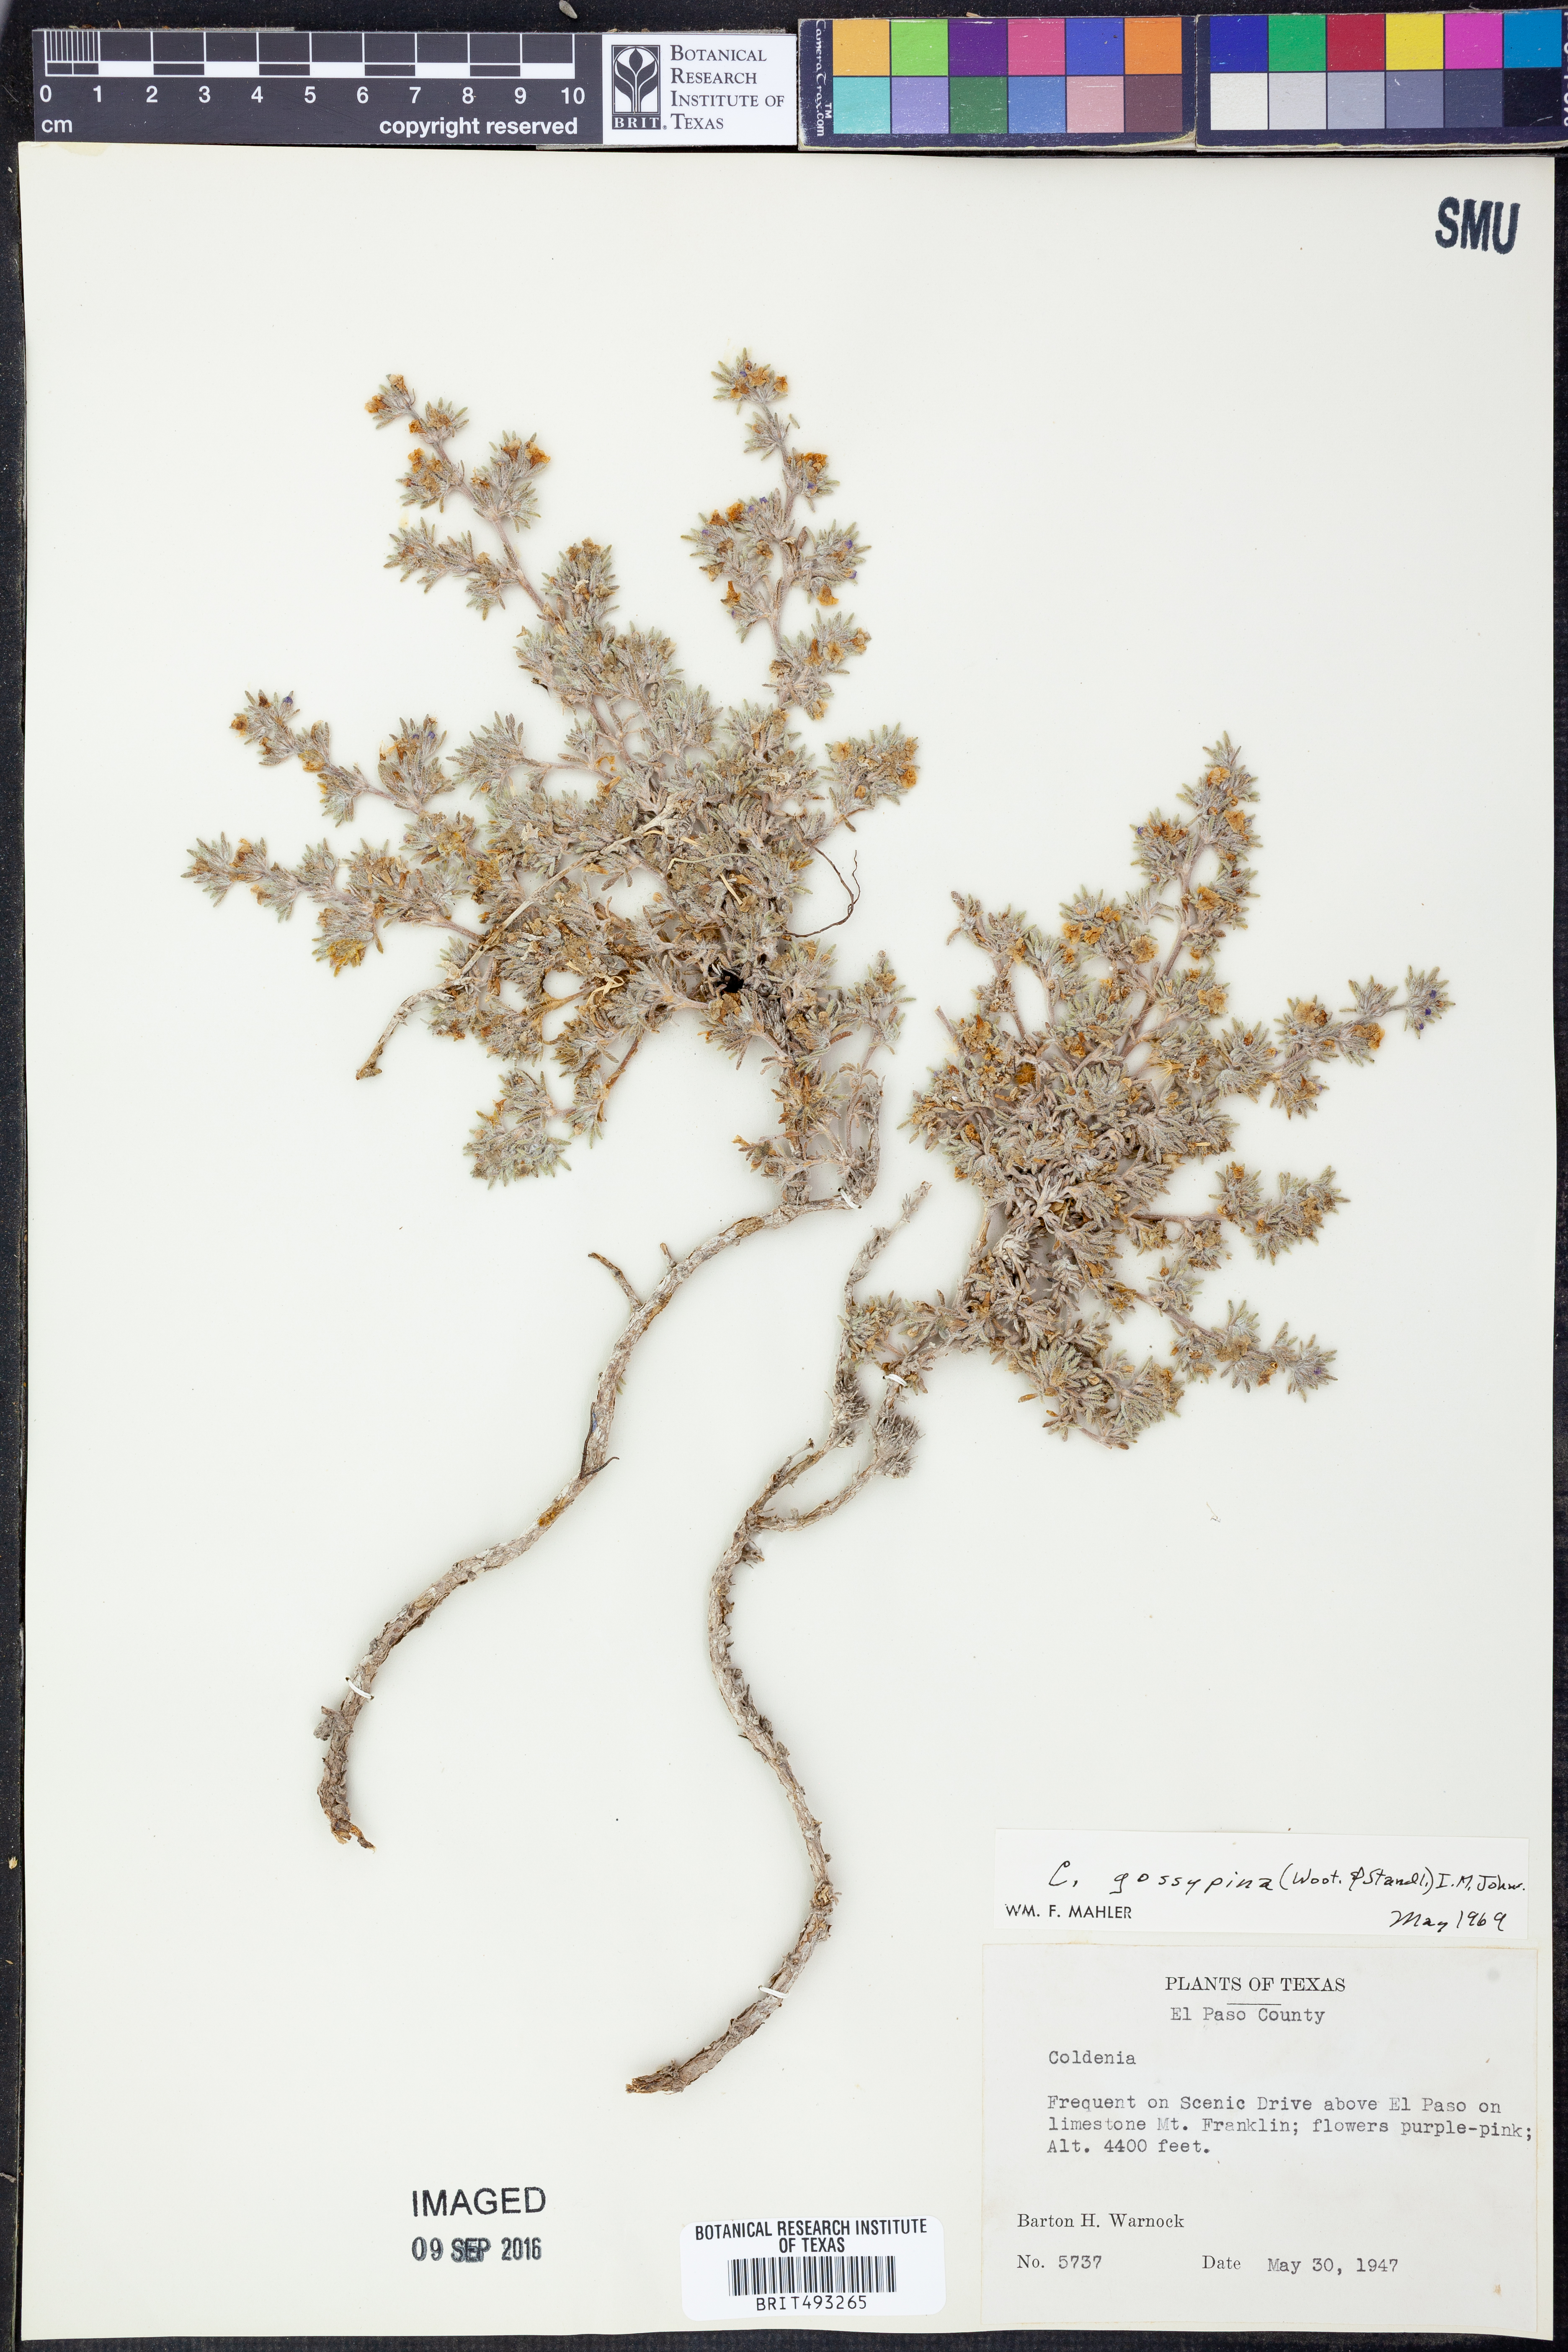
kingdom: Plantae
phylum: Tracheophyta
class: Magnoliopsida
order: Boraginales
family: Ehretiaceae
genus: Tiquilia
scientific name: Tiquilia gossypina
